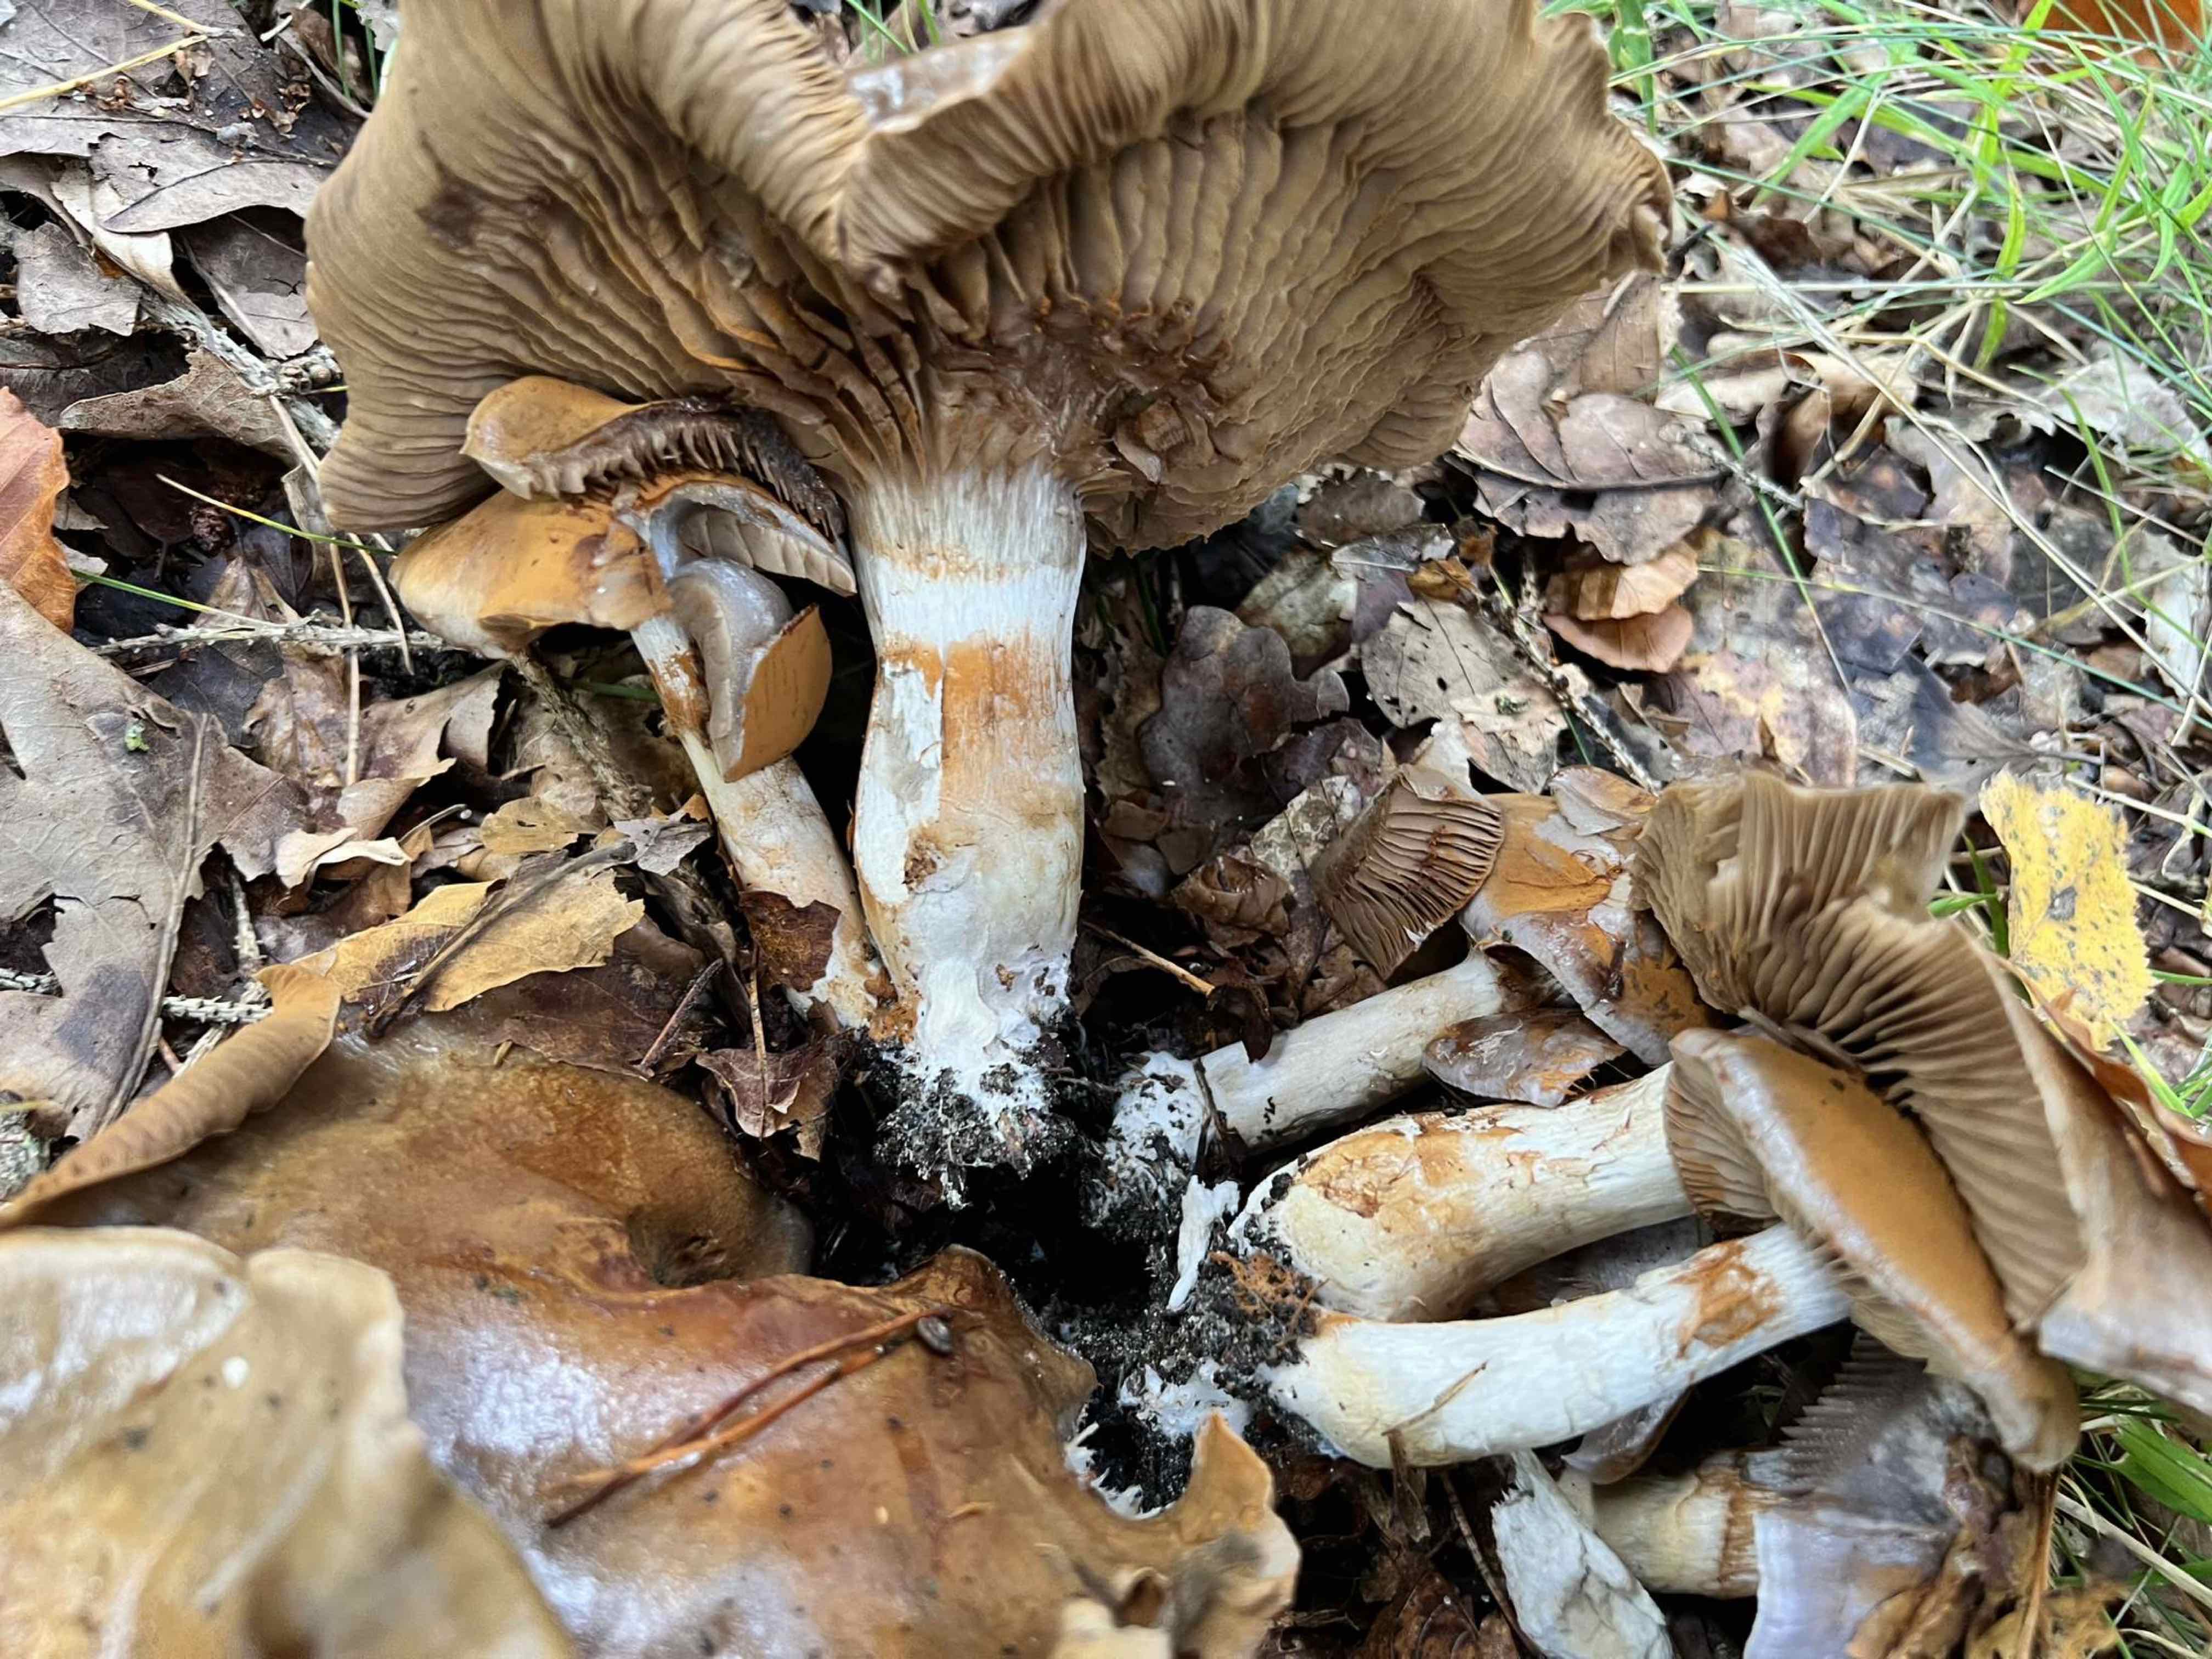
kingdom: Fungi
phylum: Basidiomycota
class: Agaricomycetes
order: Agaricales
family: Cortinariaceae
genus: Cortinarius
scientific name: Cortinarius
